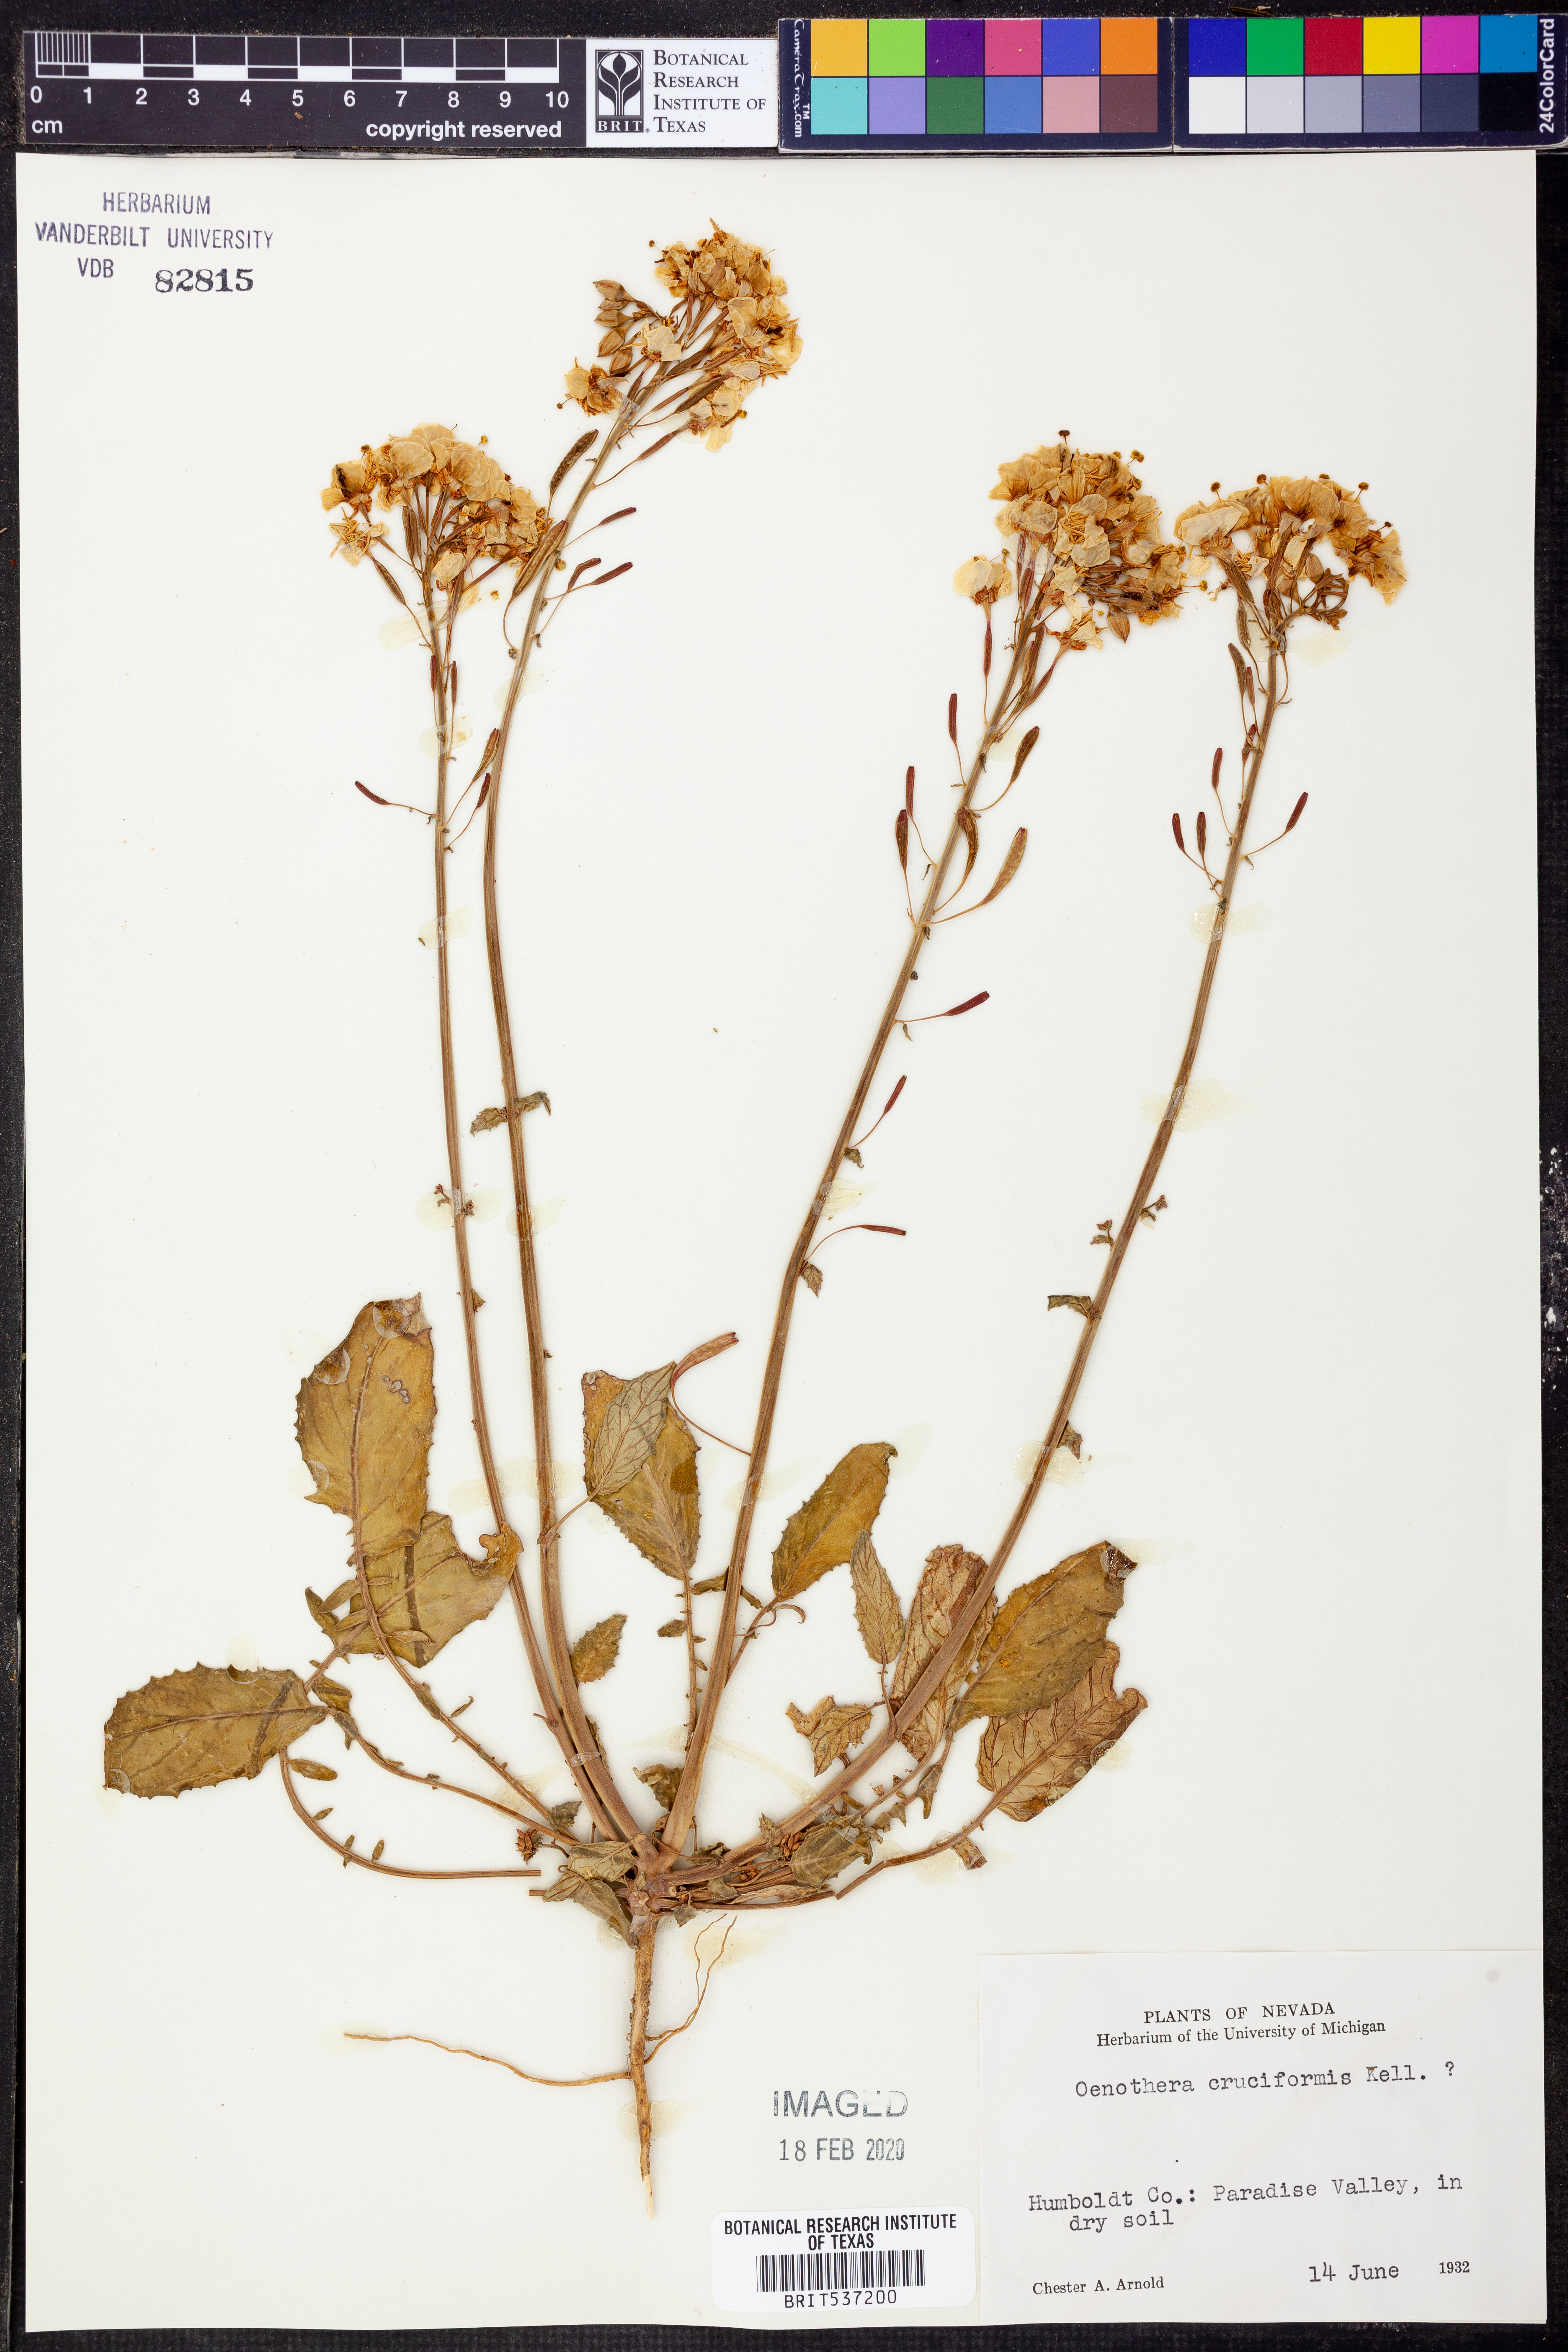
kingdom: Plantae
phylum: Tracheophyta
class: Magnoliopsida
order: Myrtales
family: Onagraceae
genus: Chylismia
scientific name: Chylismia claviformis
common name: Browneyes
